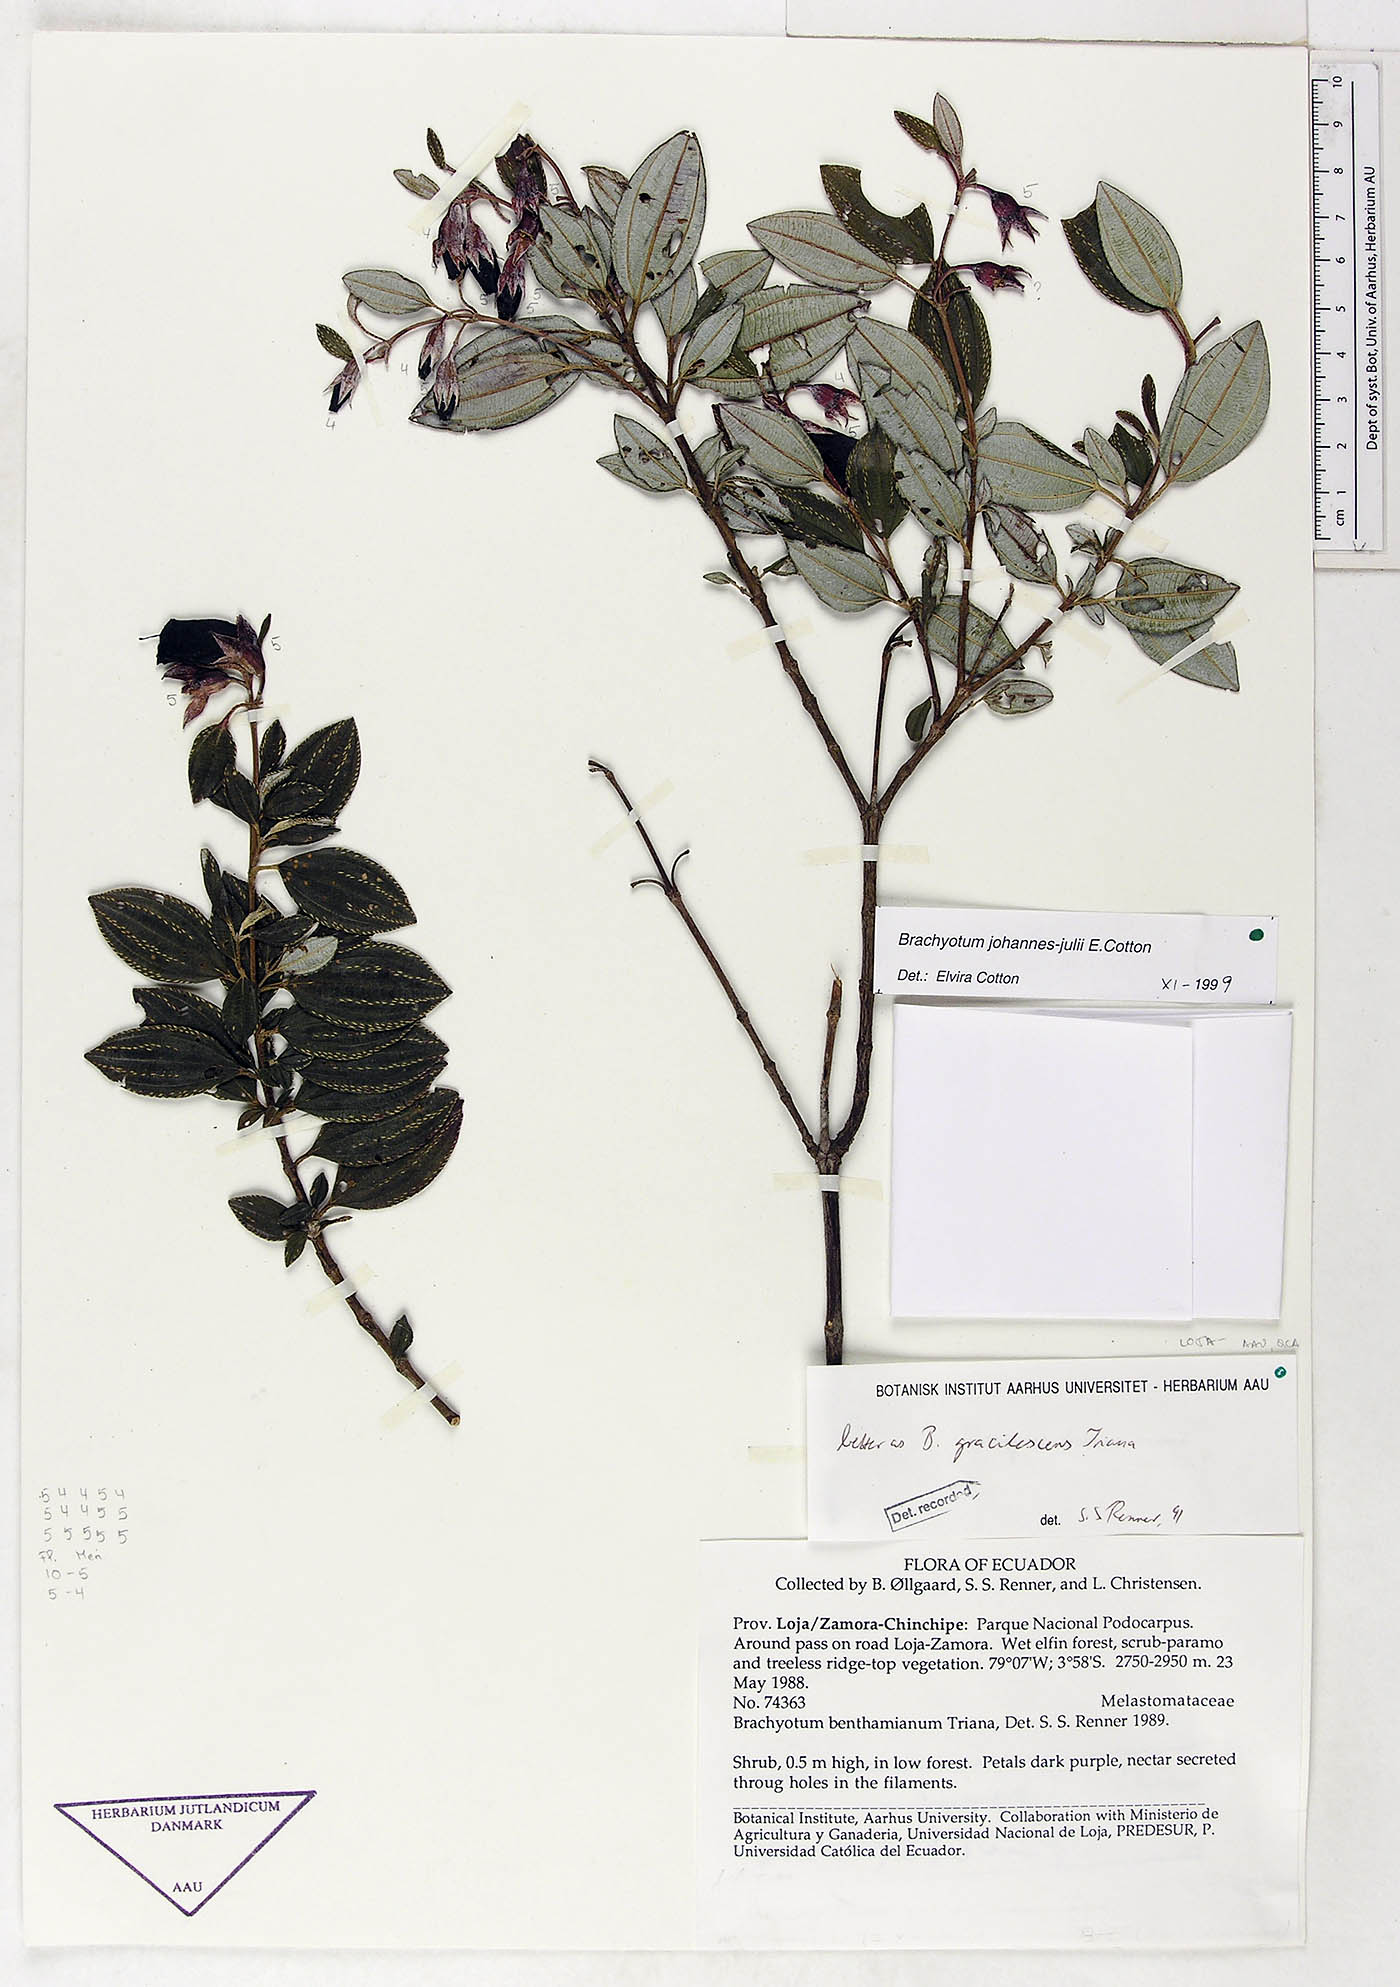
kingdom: Plantae
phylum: Tracheophyta
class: Magnoliopsida
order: Myrtales
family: Melastomataceae
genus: Brachyotum
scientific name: Brachyotum gracilescens
